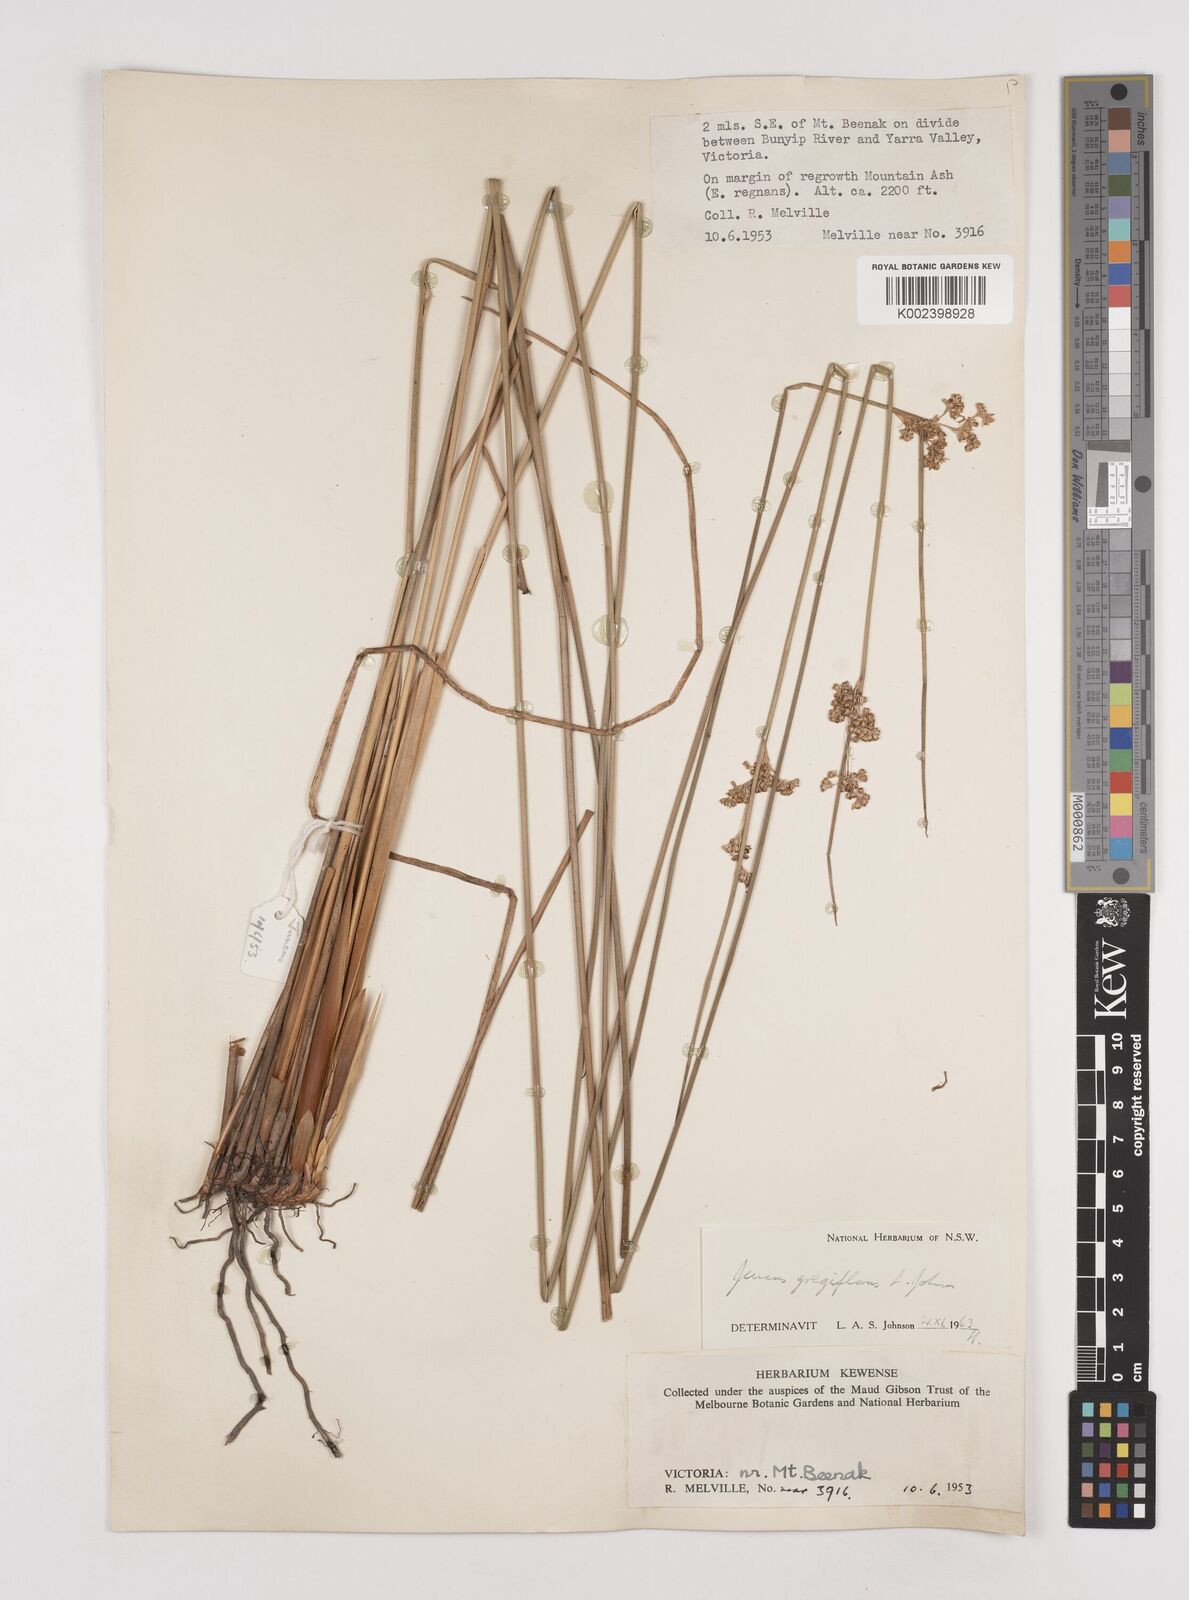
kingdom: Plantae
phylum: Tracheophyta
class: Liliopsida
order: Poales
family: Juncaceae
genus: Juncus
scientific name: Juncus gregiflorus
